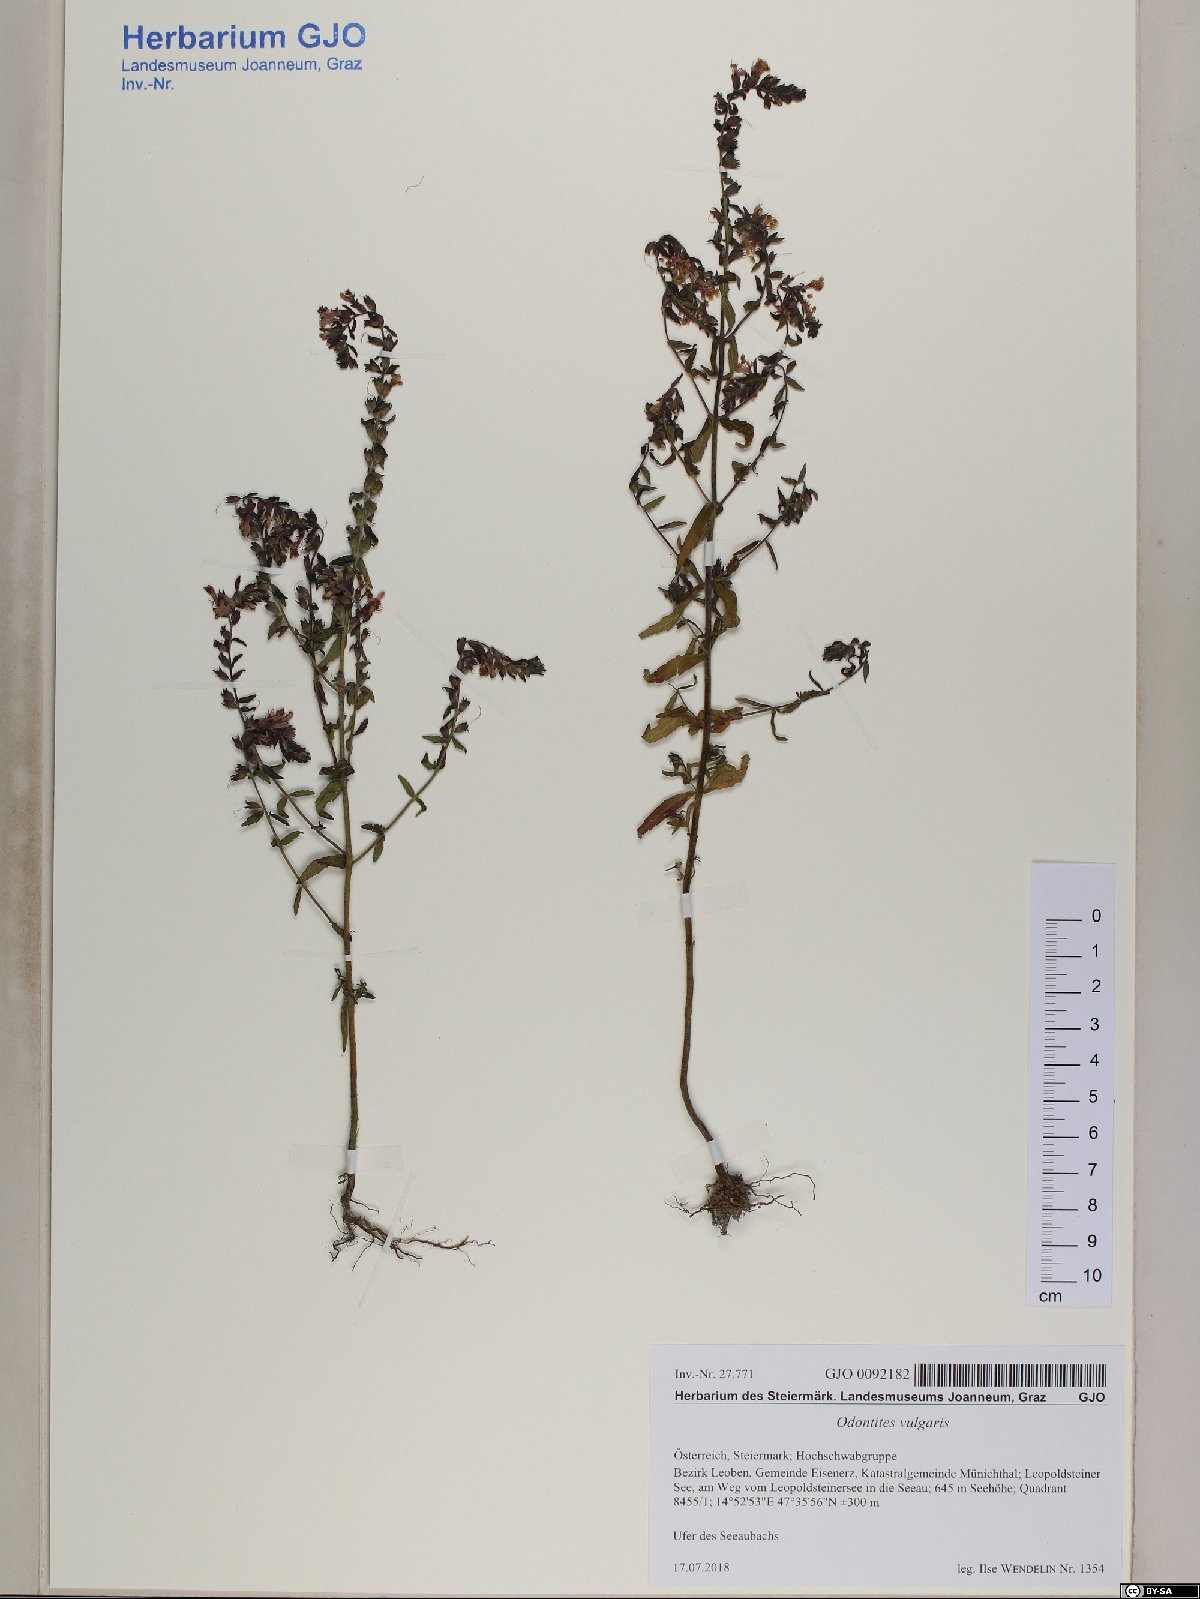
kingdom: Plantae
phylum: Tracheophyta
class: Magnoliopsida
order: Lamiales
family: Orobanchaceae
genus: Odontites
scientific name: Odontites vulgaris
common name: Broomrape
